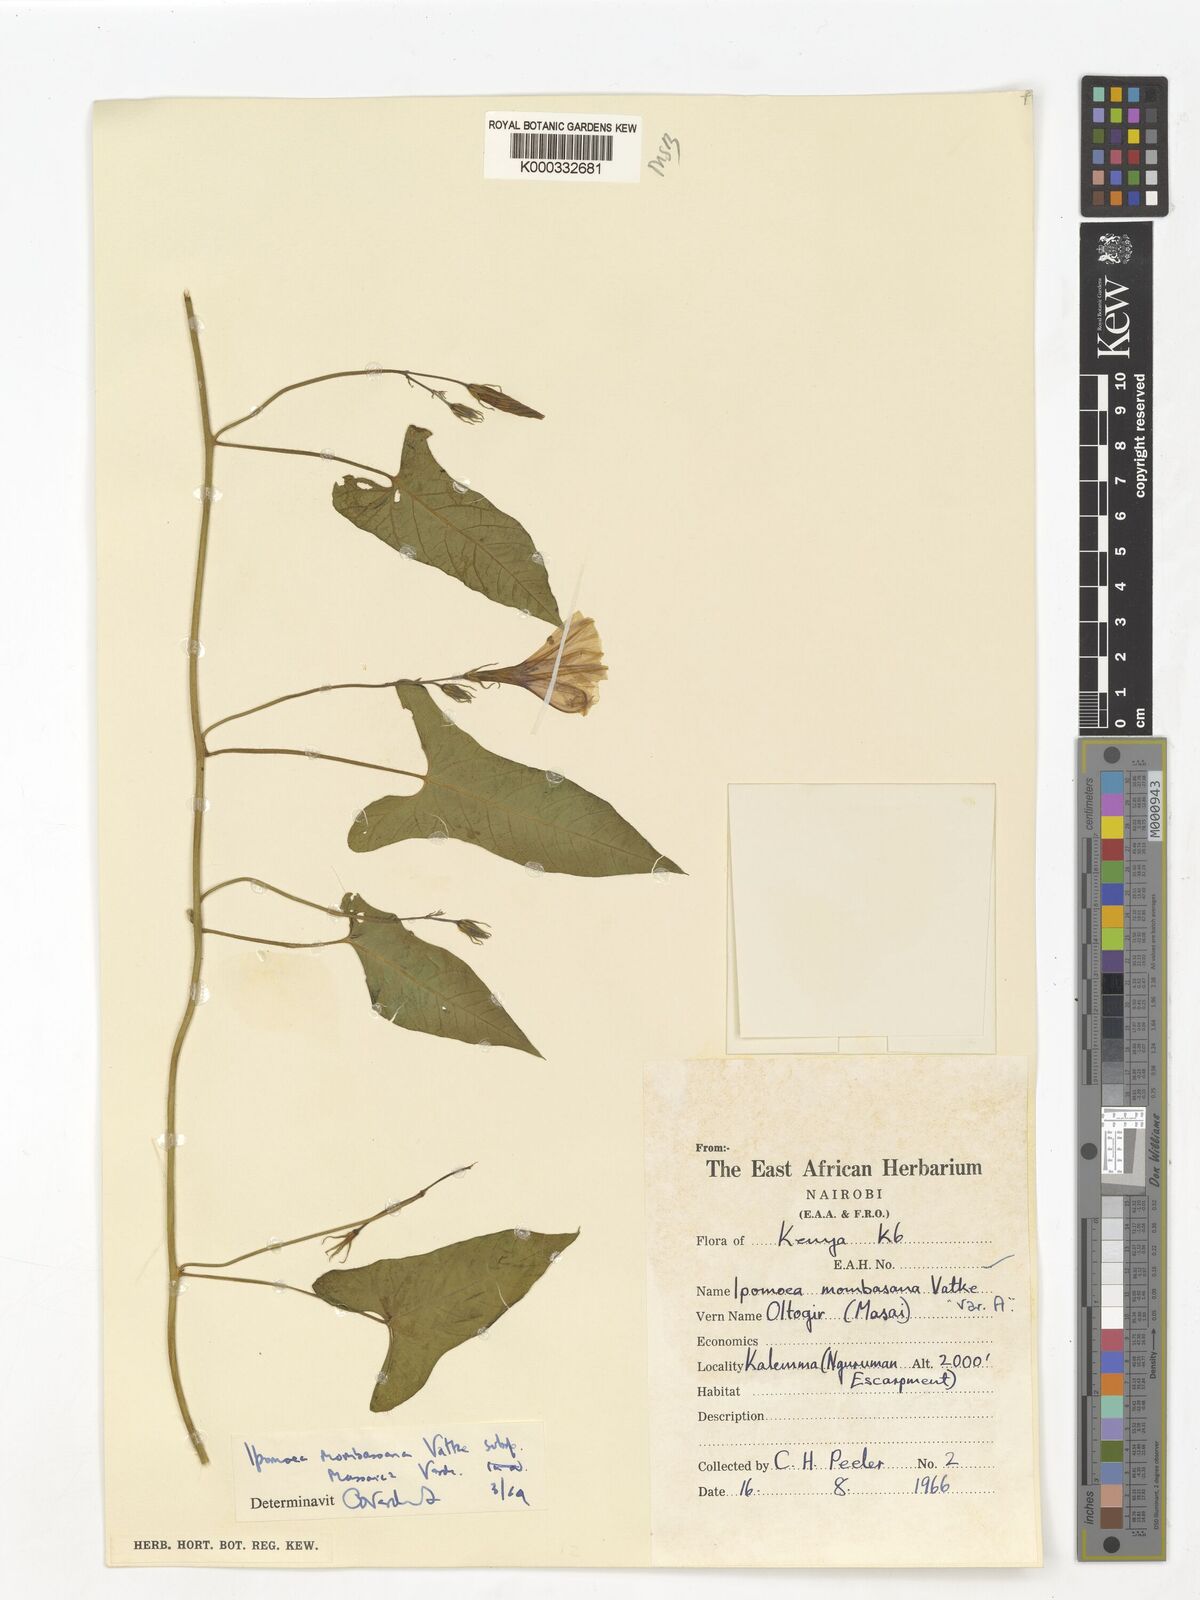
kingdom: Plantae
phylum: Tracheophyta
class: Magnoliopsida
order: Solanales
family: Convolvulaceae
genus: Ipomoea
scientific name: Ipomoea mombassana
